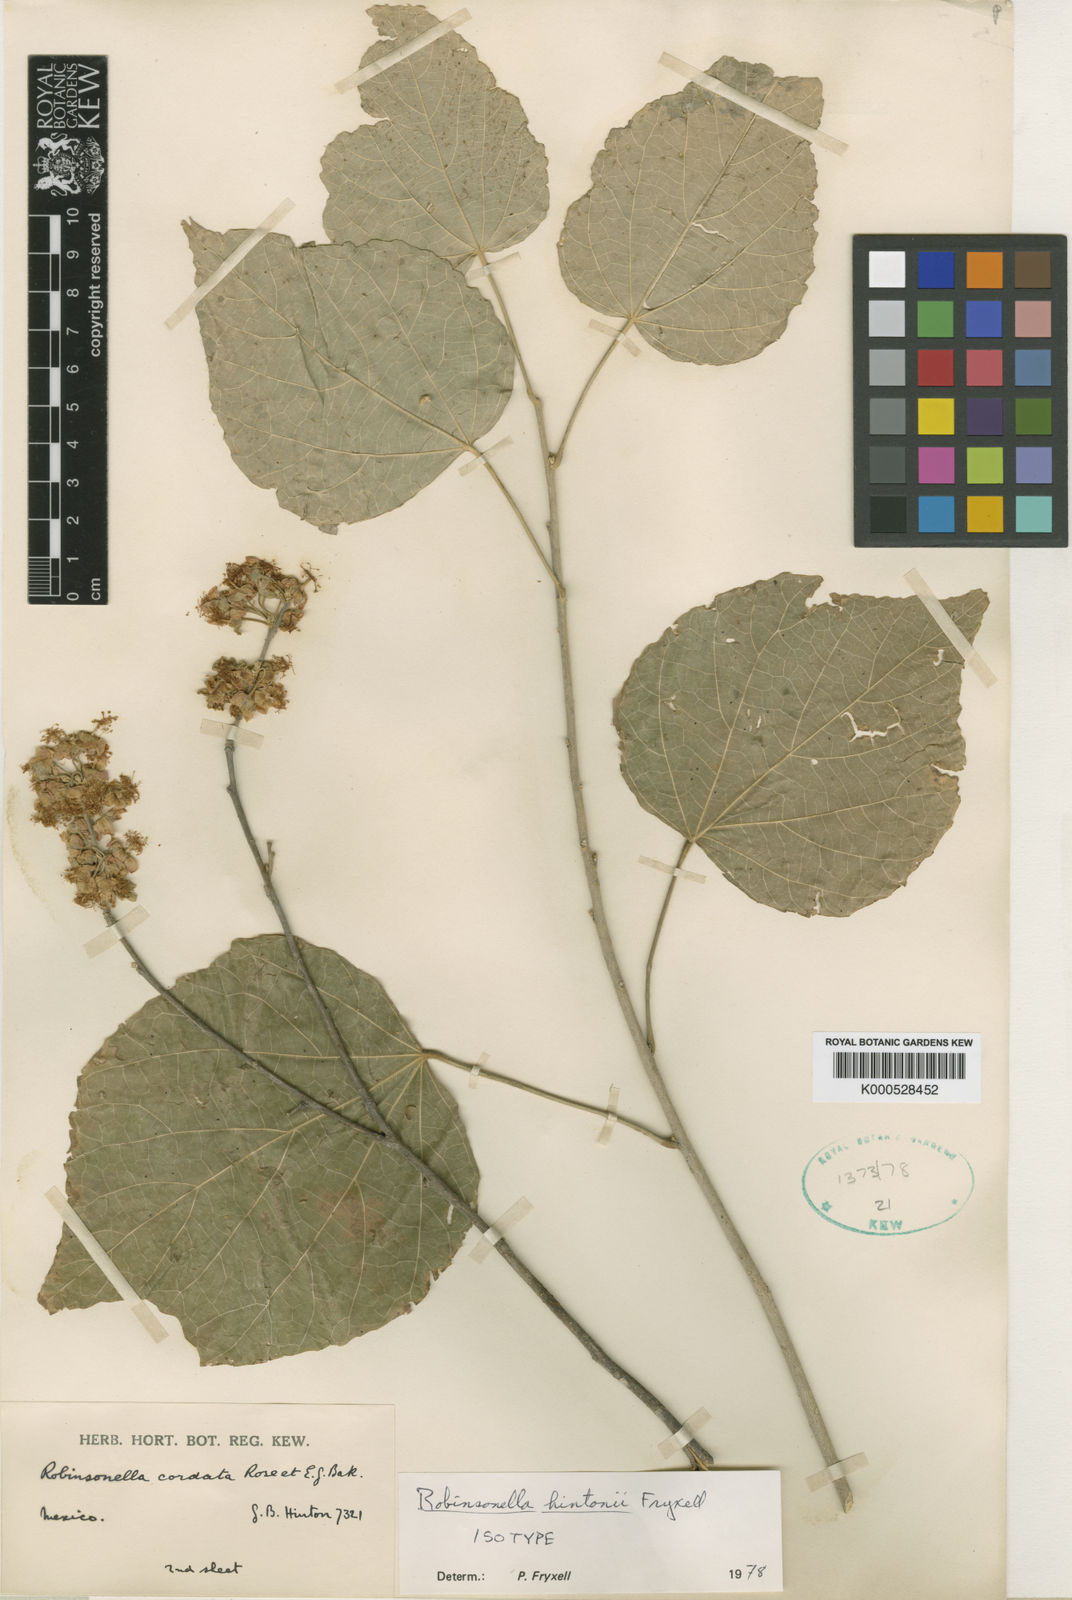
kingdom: Plantae
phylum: Tracheophyta
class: Magnoliopsida
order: Malvales
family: Malvaceae
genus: Robinsonella
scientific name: Robinsonella hintonii
